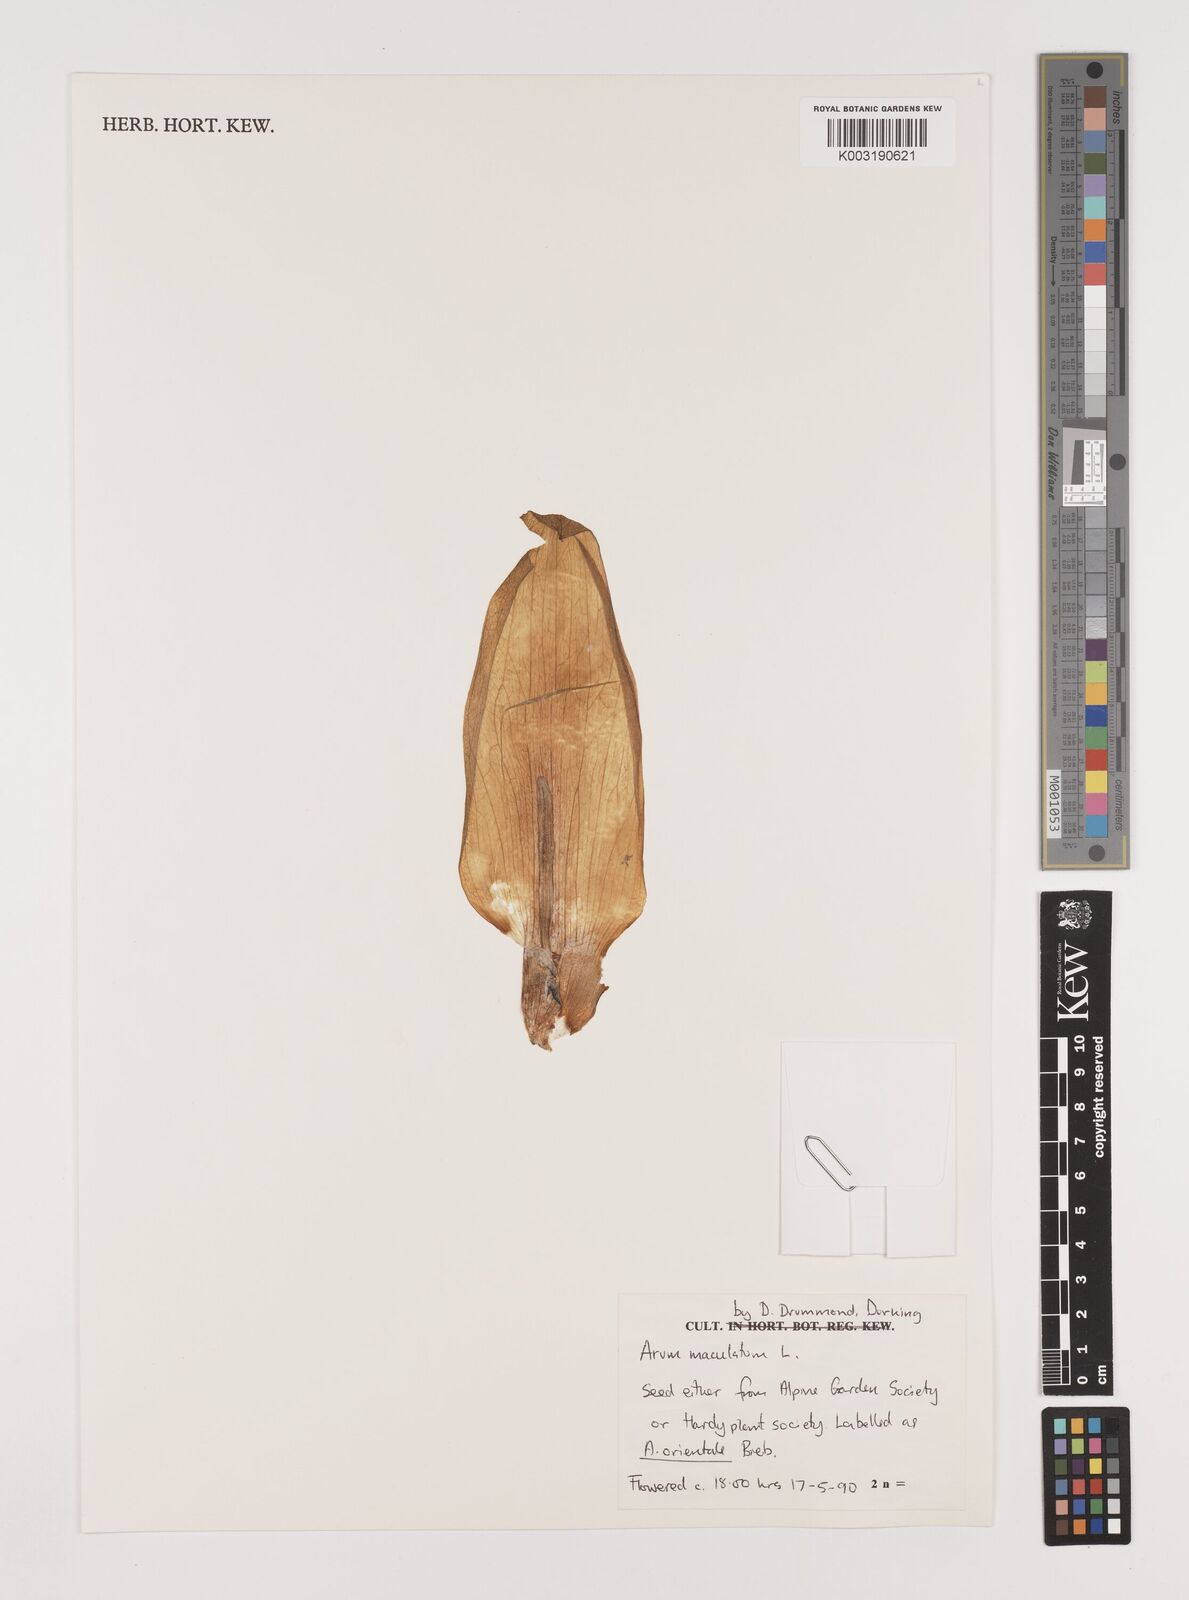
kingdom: Plantae
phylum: Tracheophyta
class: Liliopsida
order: Alismatales
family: Araceae
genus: Arum
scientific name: Arum maculatum
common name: Lords-and-ladies
